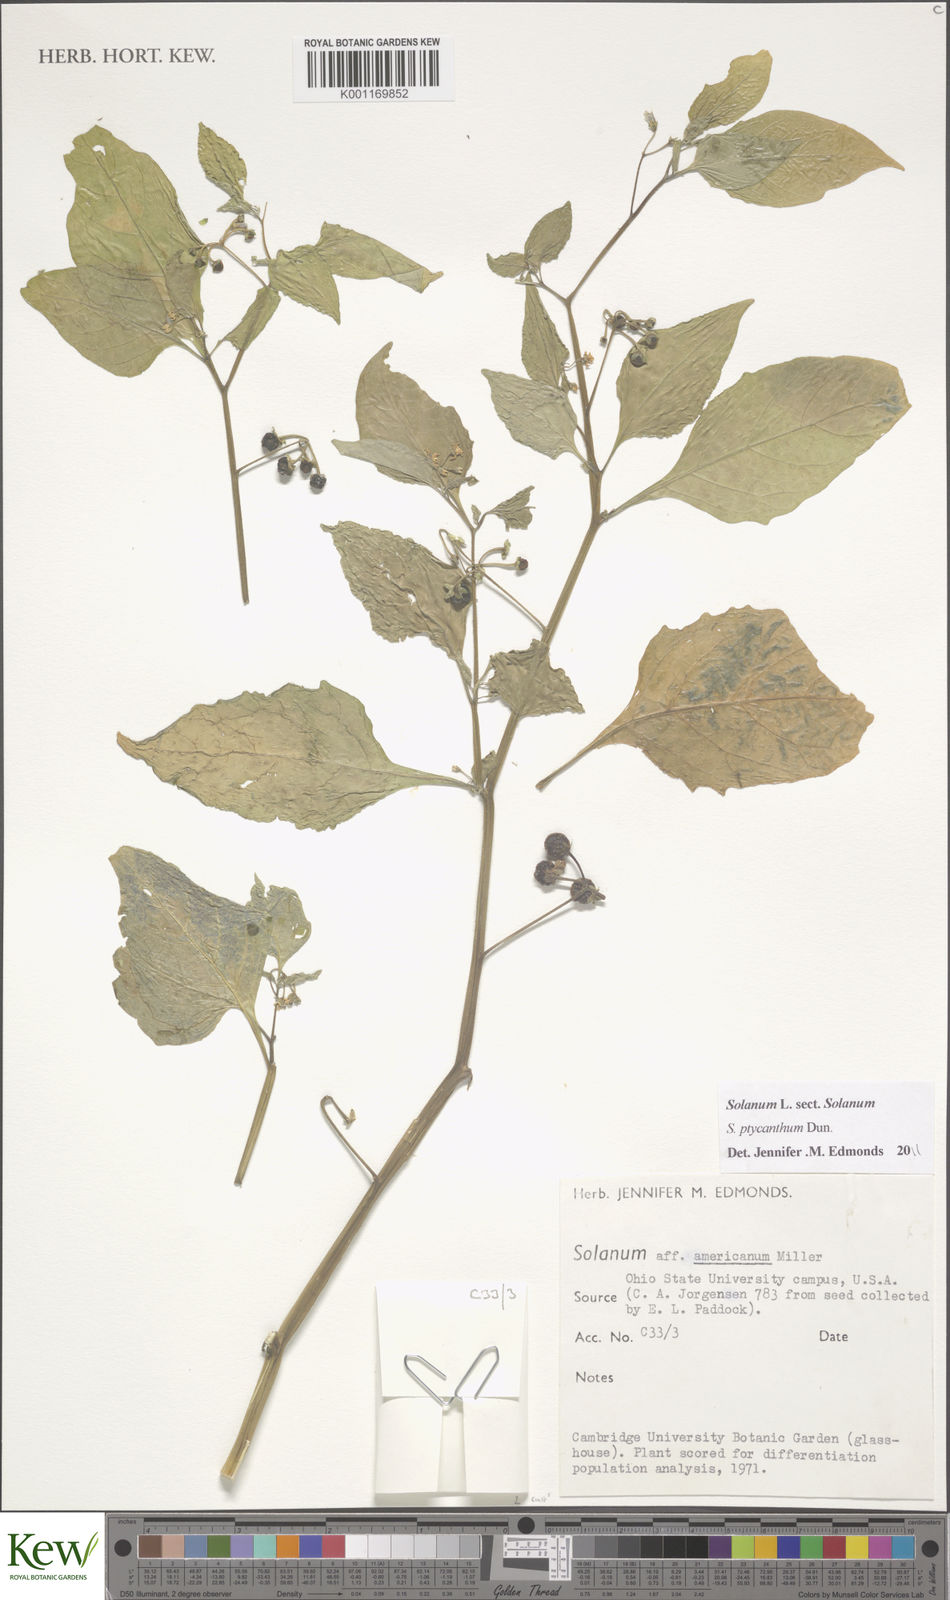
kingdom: Plantae
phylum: Tracheophyta
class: Magnoliopsida
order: Solanales
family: Solanaceae
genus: Solanum
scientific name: Solanum americanum
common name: American black nightshade
